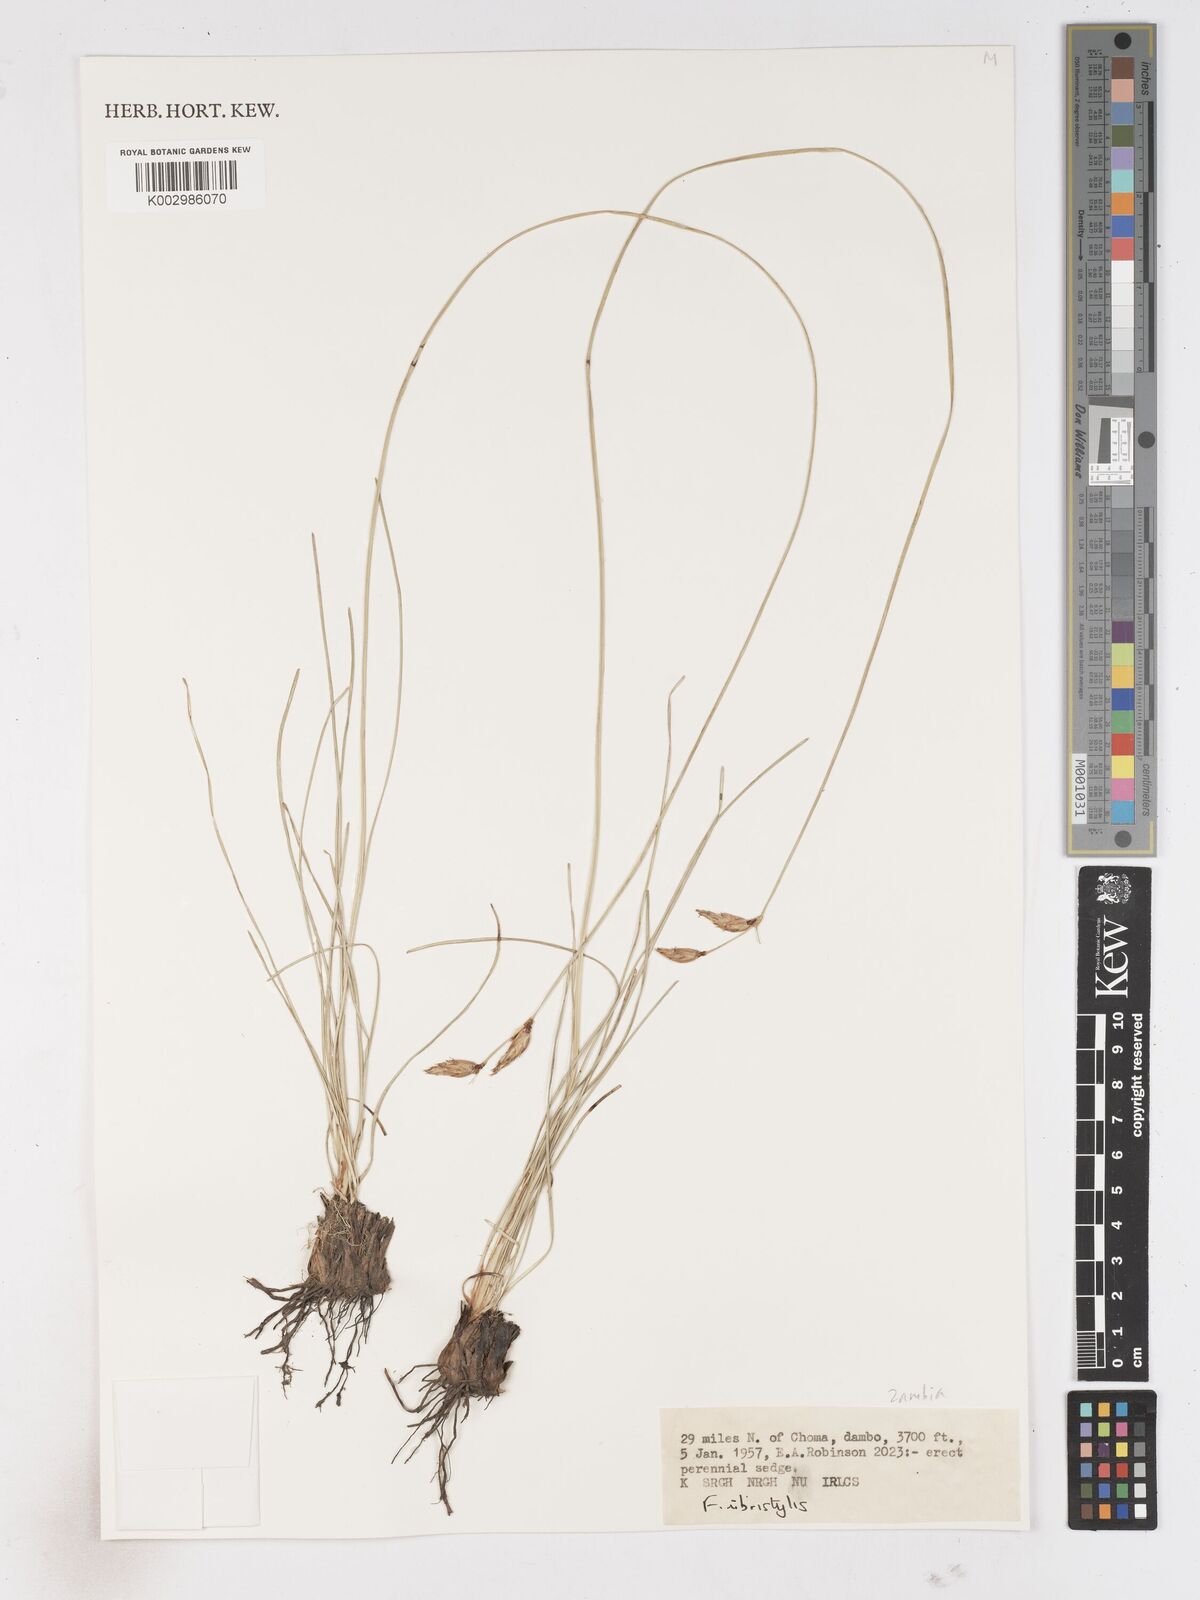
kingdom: Plantae
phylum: Tracheophyta
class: Liliopsida
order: Poales
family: Cyperaceae
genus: Fimbristylis
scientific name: Fimbristylis
